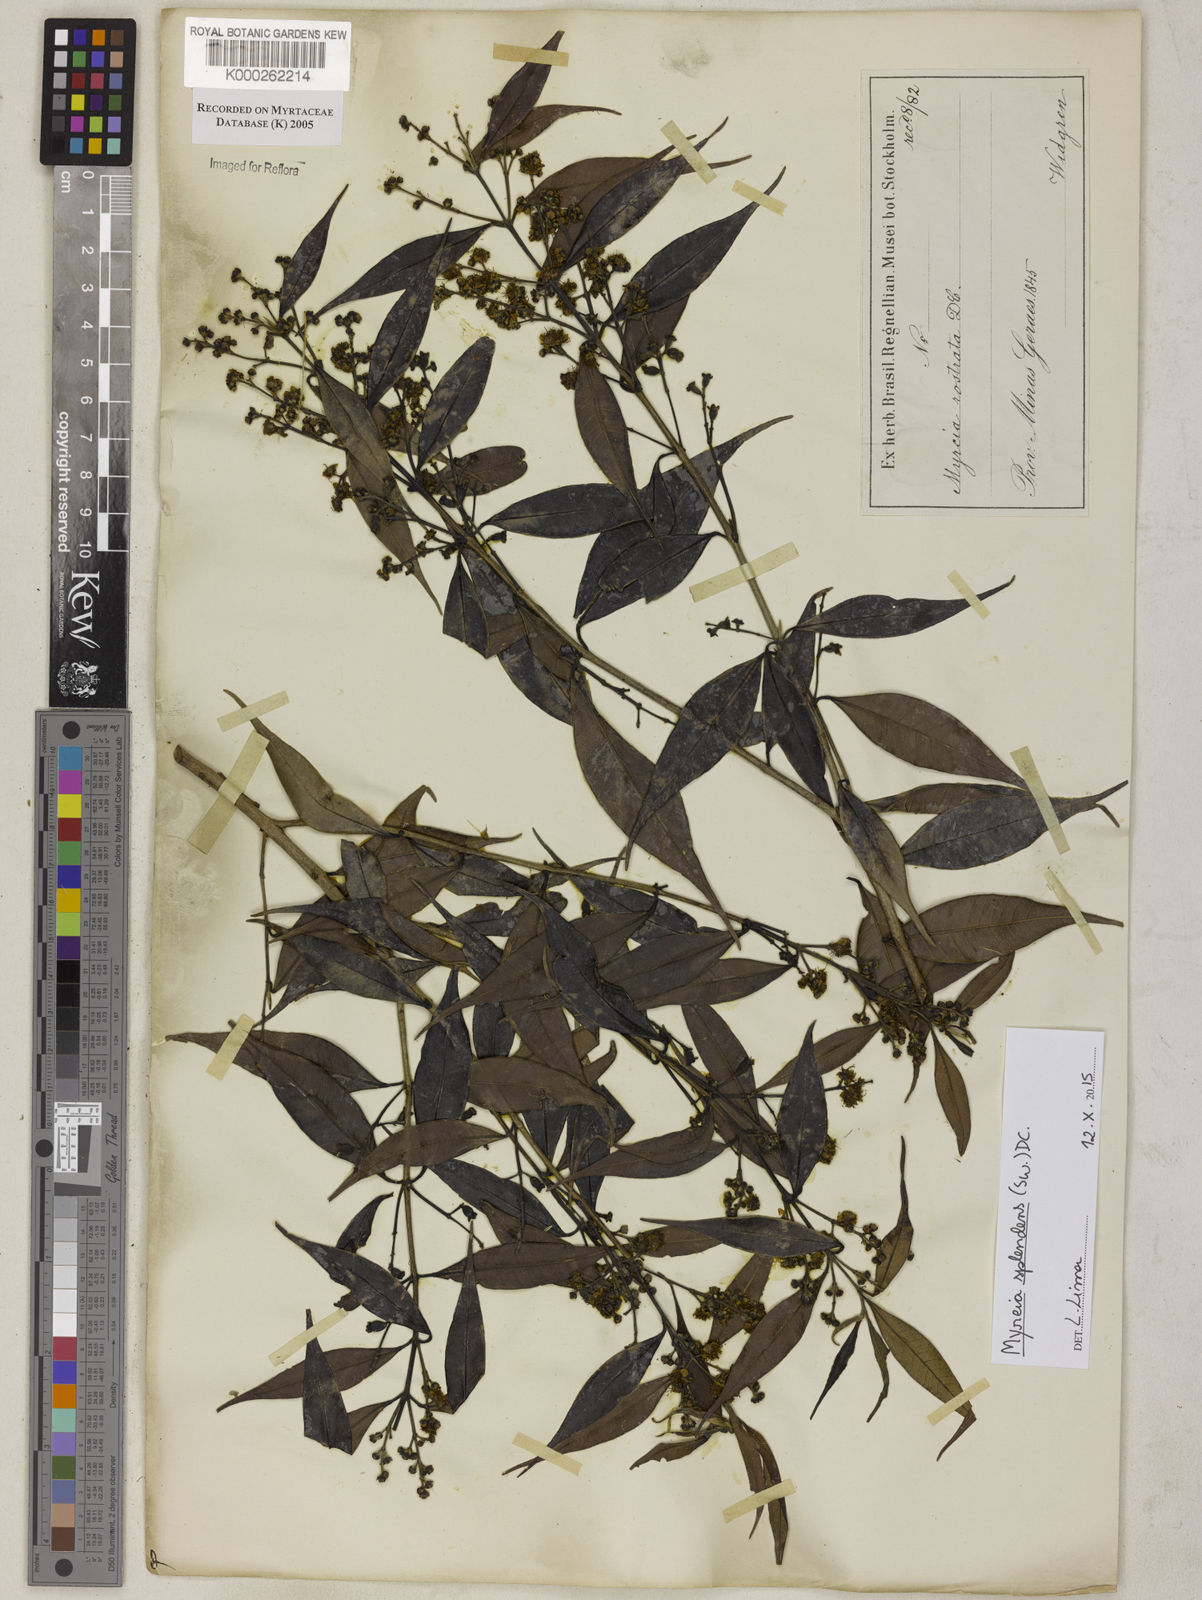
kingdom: Plantae
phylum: Tracheophyta
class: Magnoliopsida
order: Myrtales
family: Myrtaceae
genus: Myrcia
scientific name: Myrcia splendens
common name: Surinam cherry
